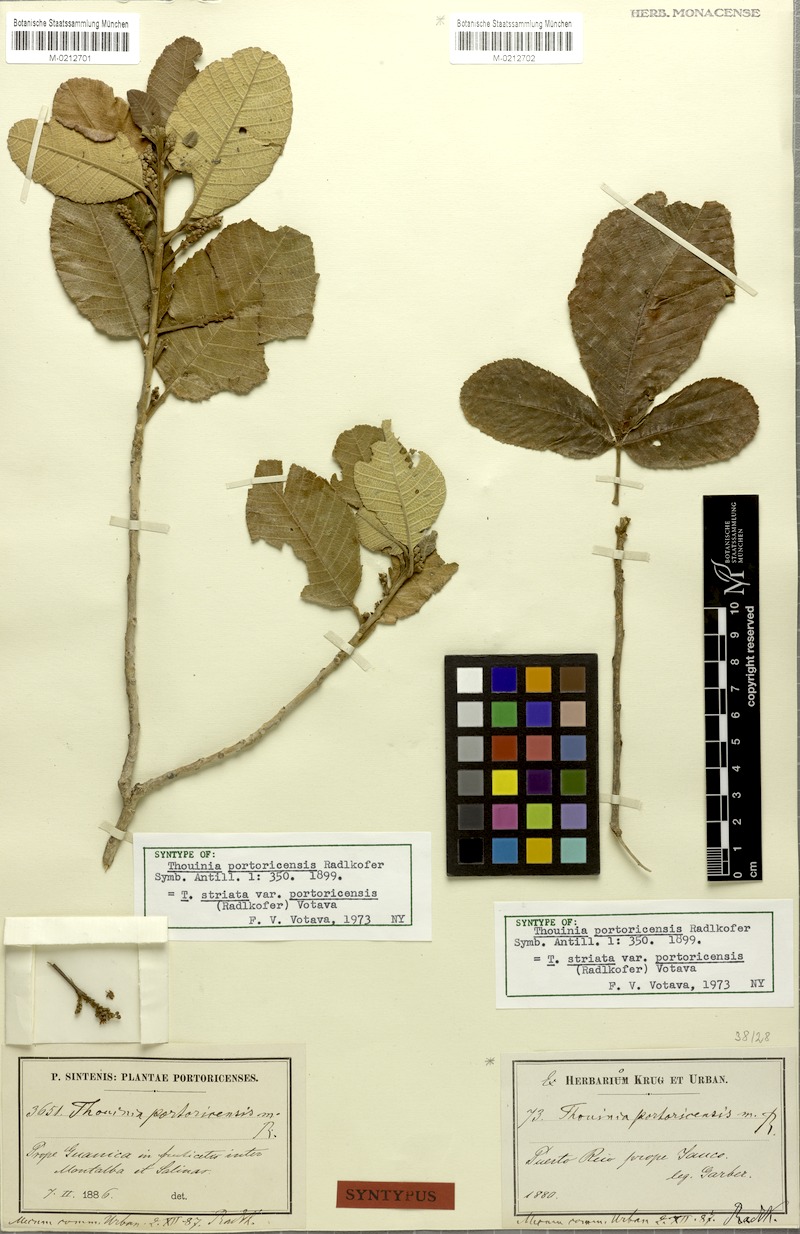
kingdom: Plantae
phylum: Tracheophyta
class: Magnoliopsida
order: Sapindales
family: Sapindaceae
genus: Thouinia
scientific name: Thouinia striata
